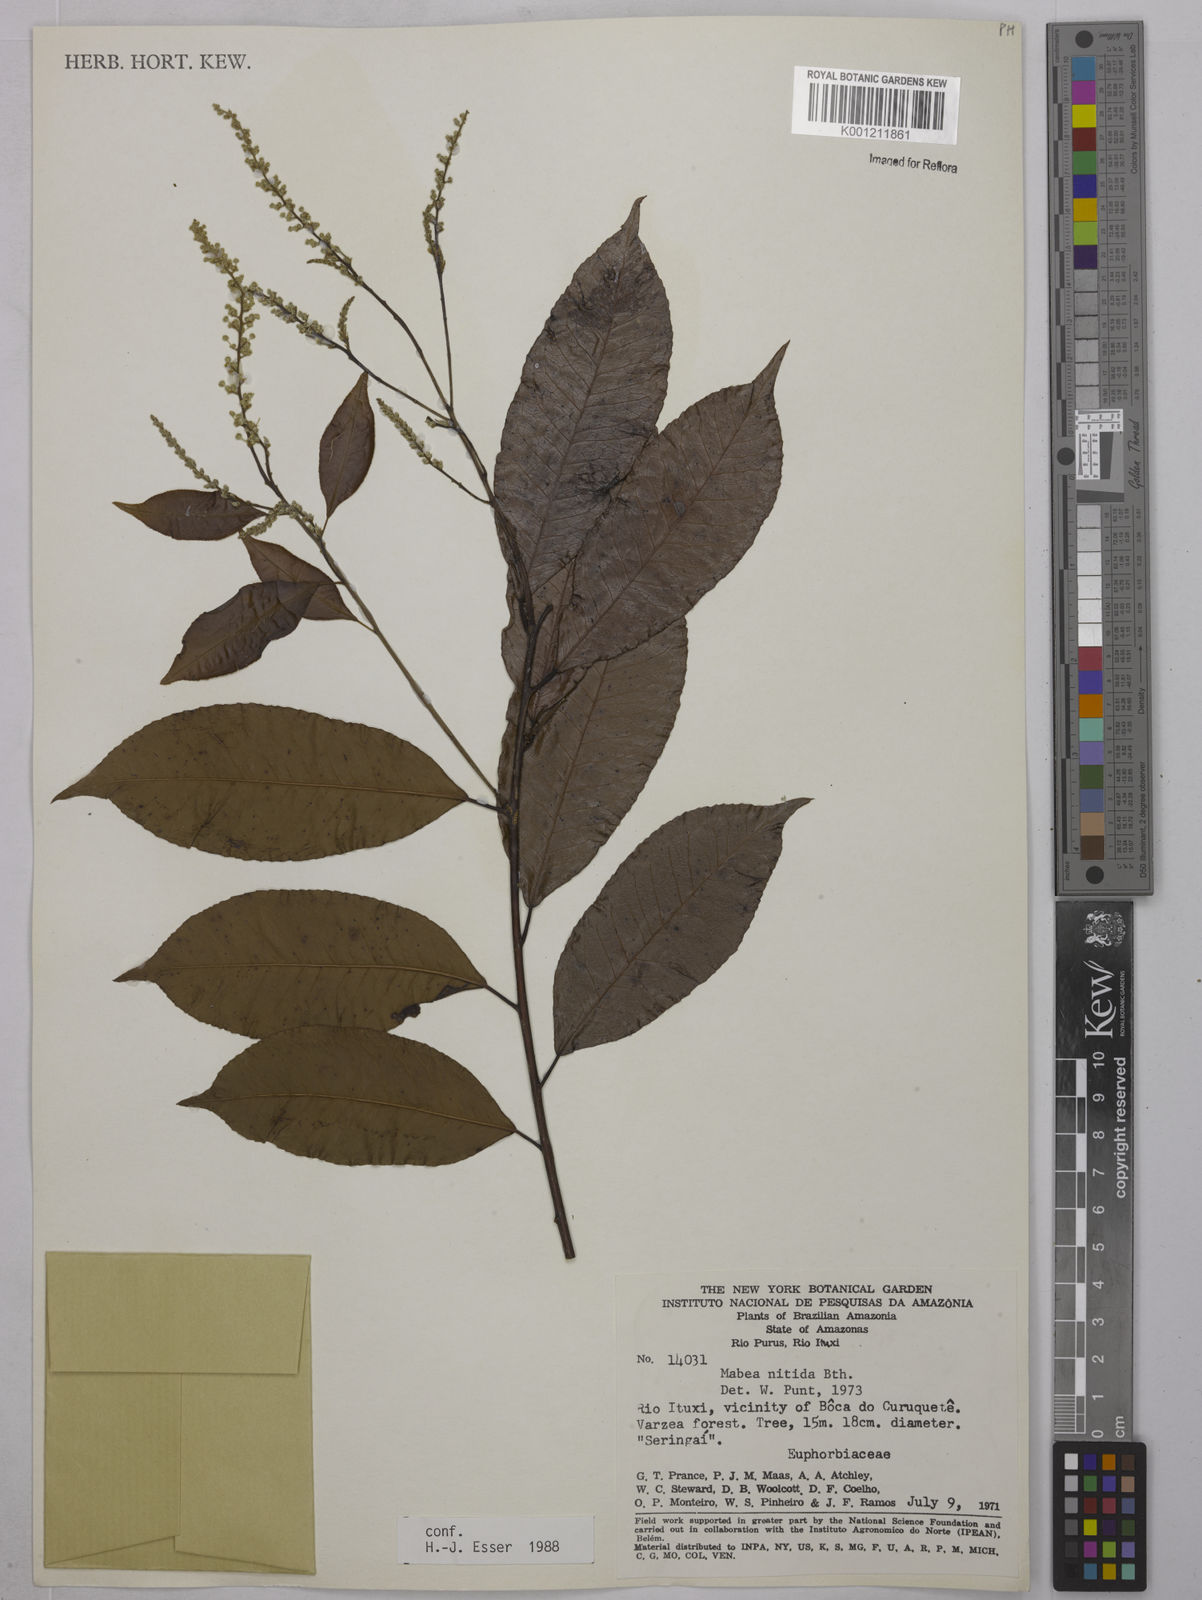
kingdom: Plantae
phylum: Tracheophyta
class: Magnoliopsida
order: Malpighiales
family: Euphorbiaceae
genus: Mabea
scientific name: Mabea nitida
